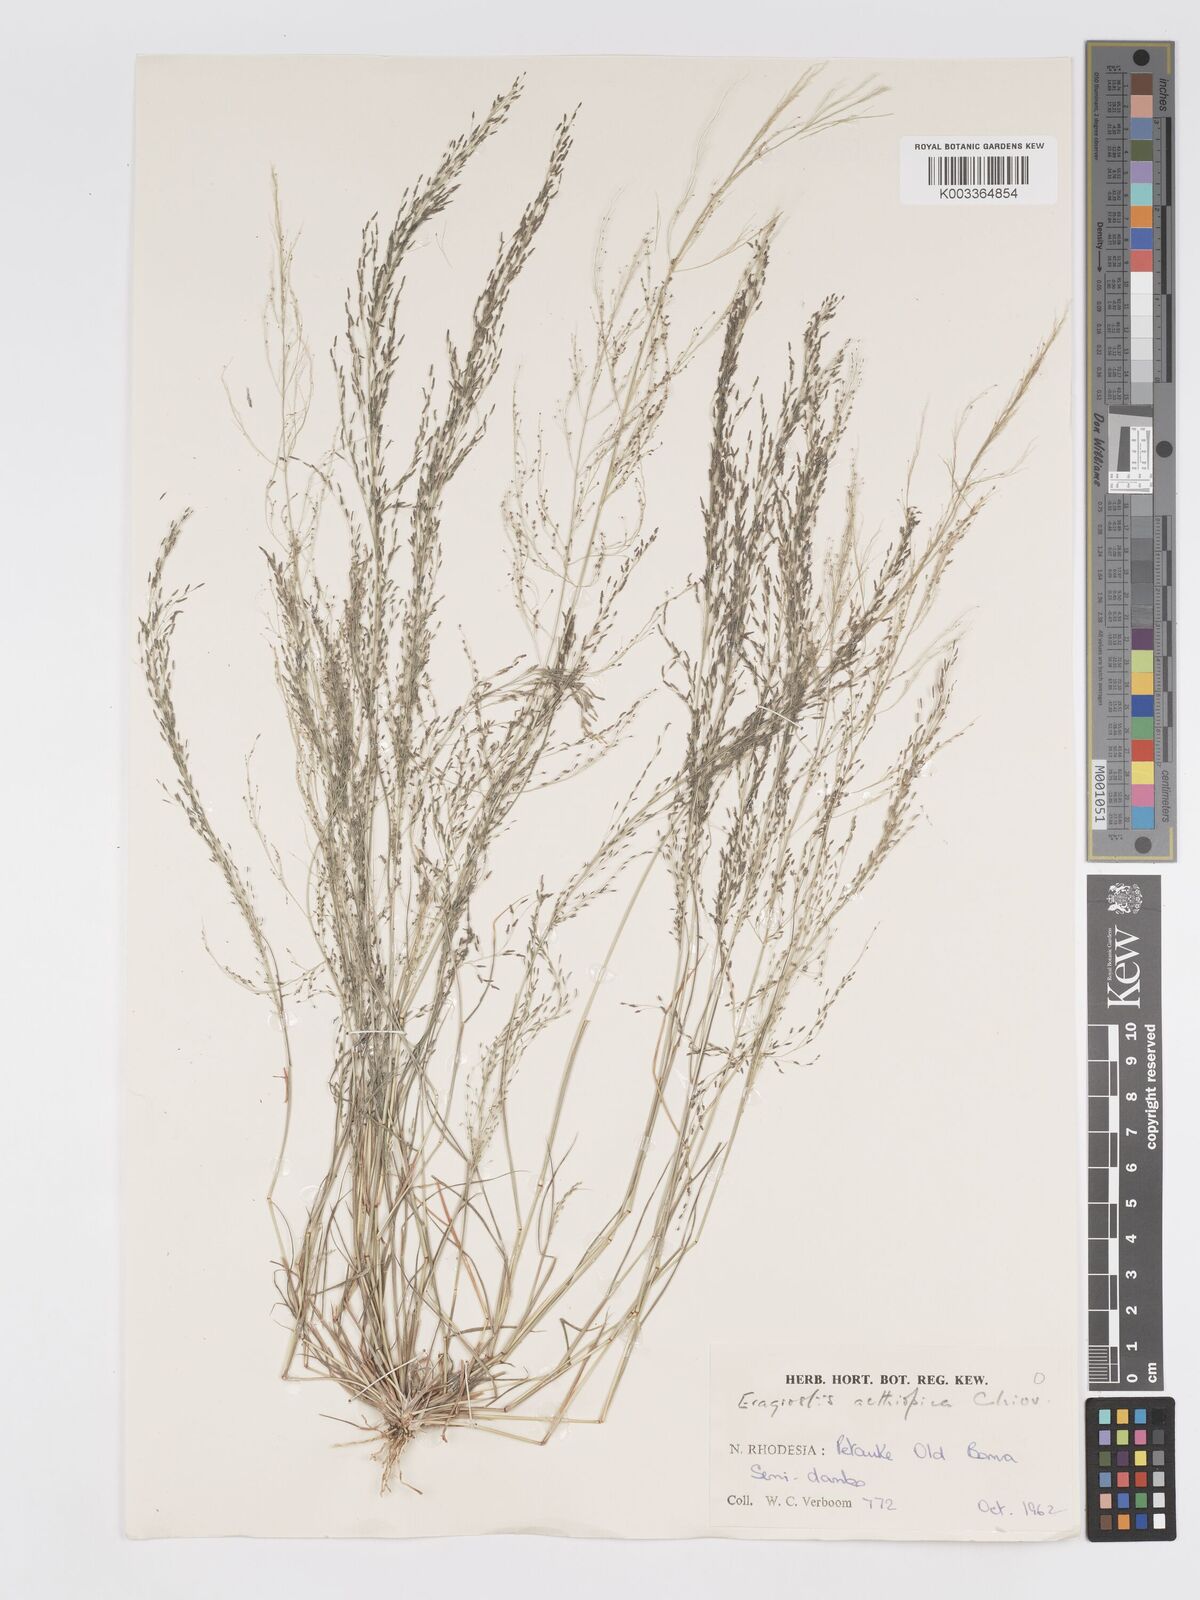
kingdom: Plantae
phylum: Tracheophyta
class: Liliopsida
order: Poales
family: Poaceae
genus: Eragrostis
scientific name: Eragrostis aethiopica
